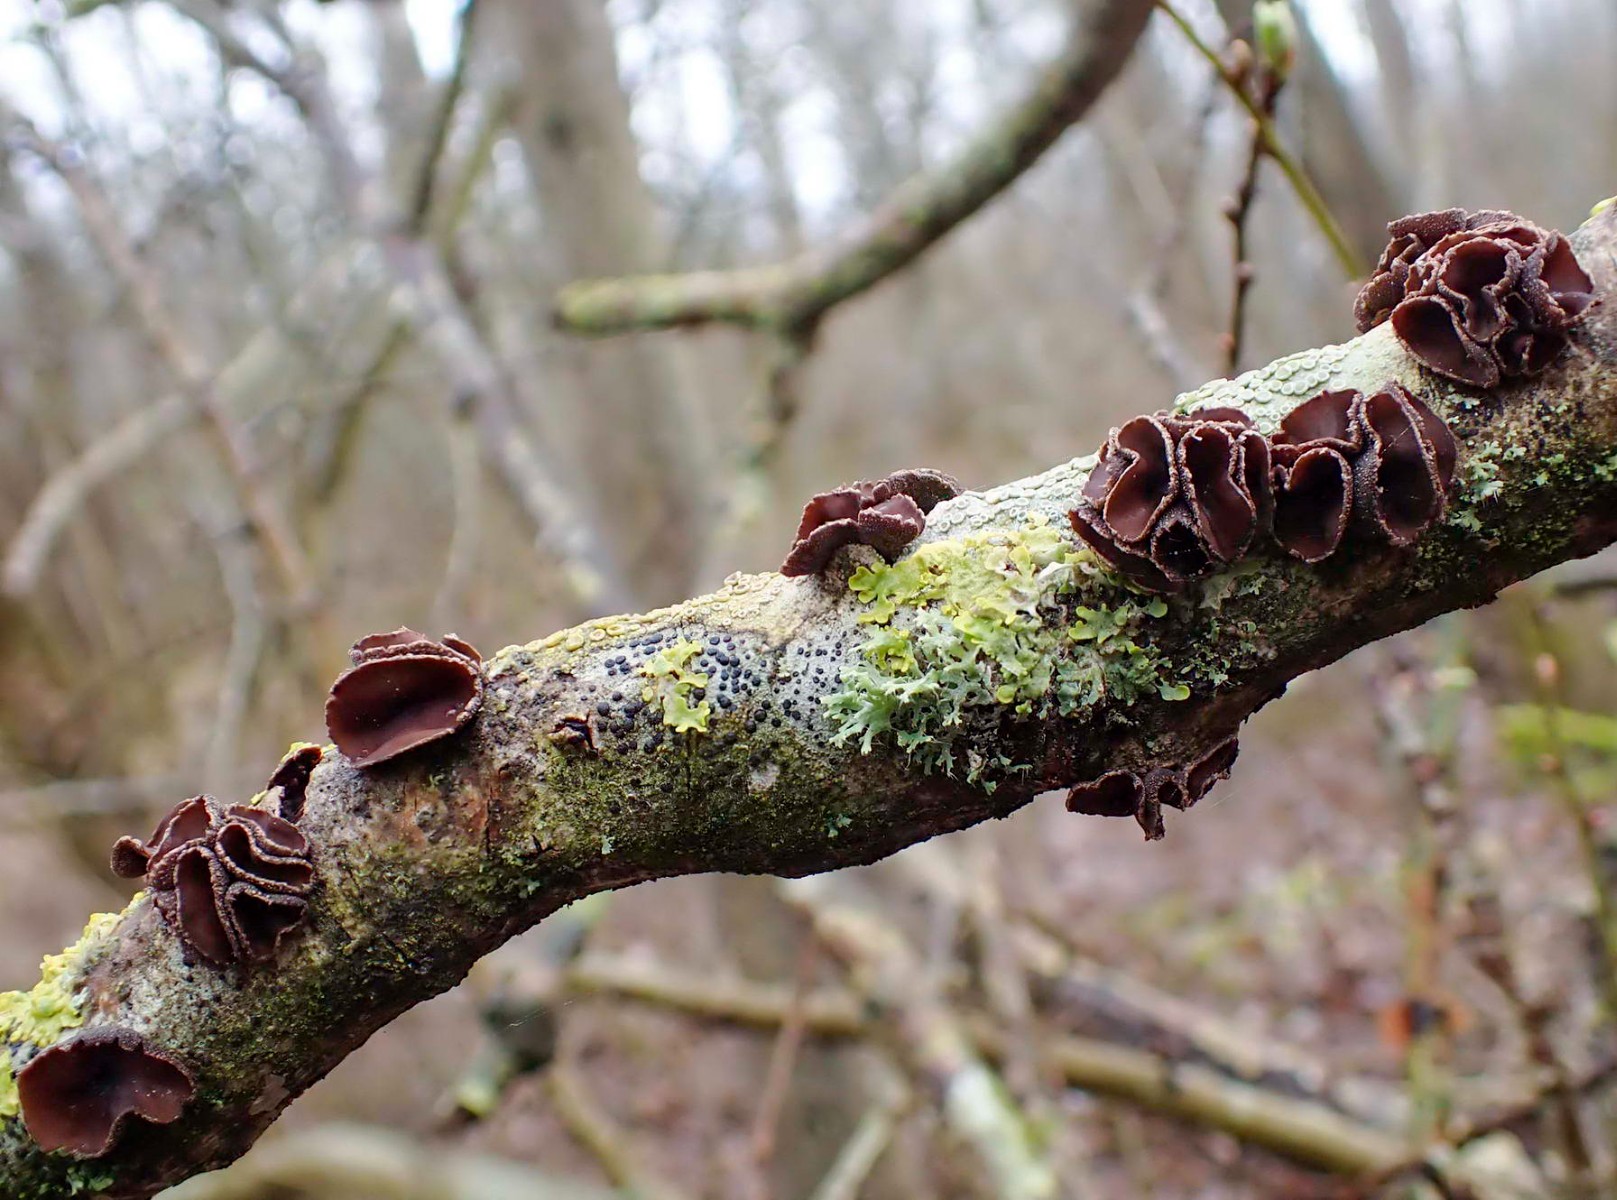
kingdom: Fungi
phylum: Ascomycota
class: Leotiomycetes
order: Helotiales
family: Sclerotiniaceae
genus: Sclerencoelia
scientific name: Sclerencoelia fascicularis
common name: poppel-læderskive
